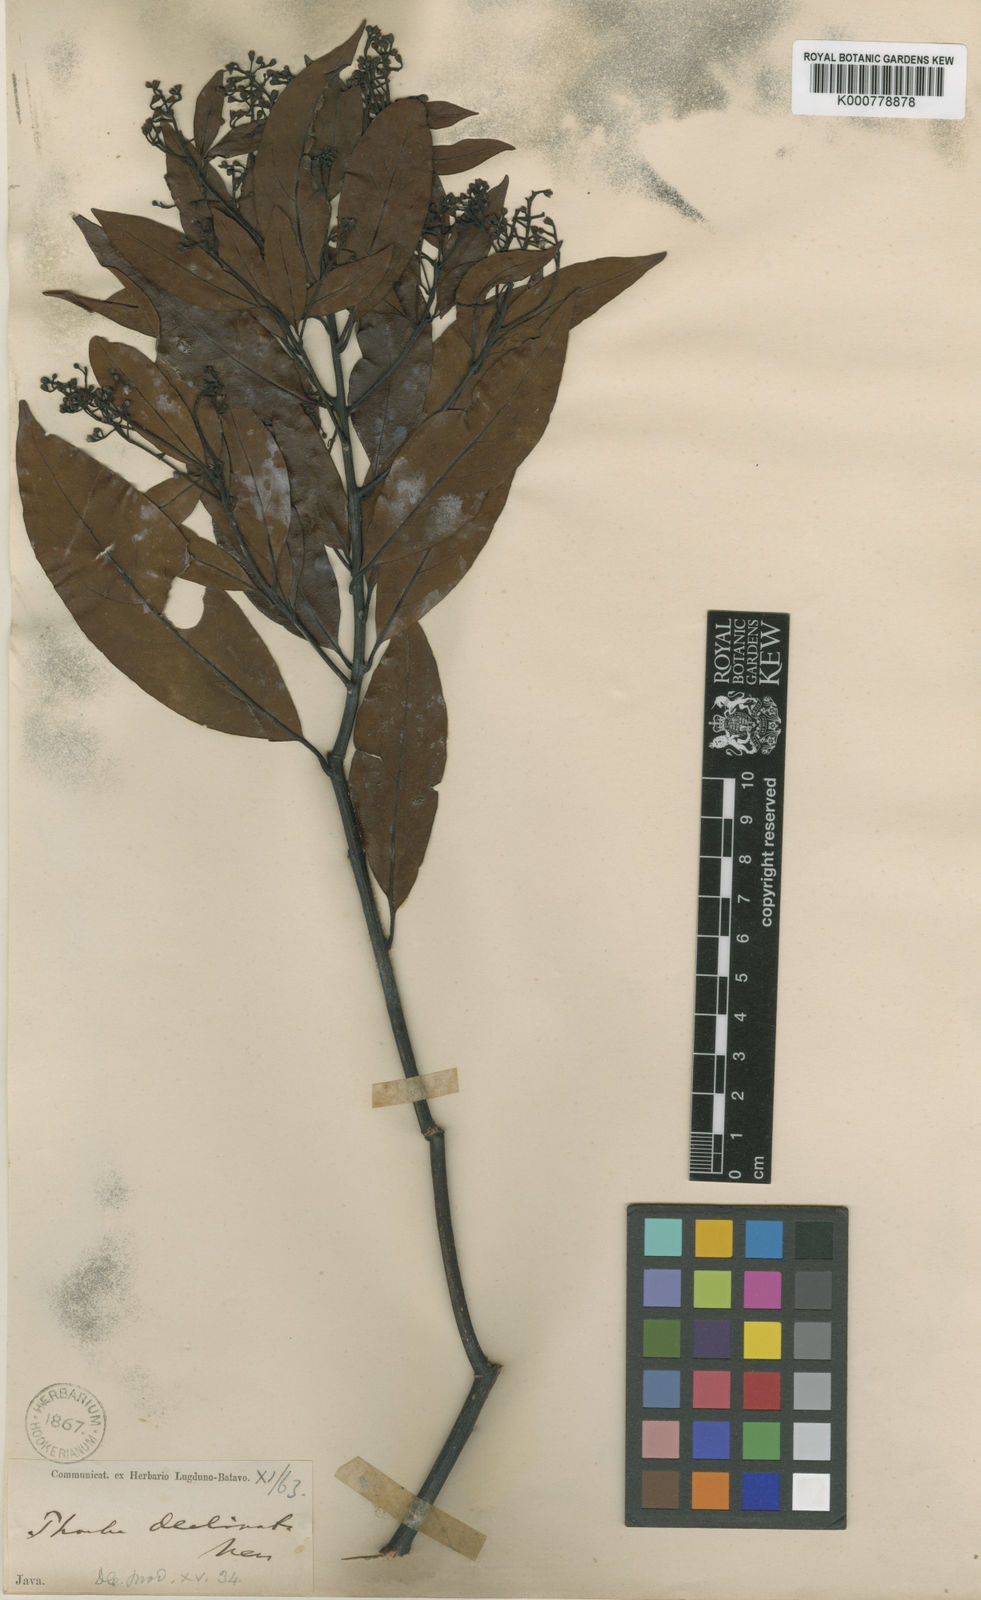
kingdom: Plantae
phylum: Tracheophyta
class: Magnoliopsida
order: Laurales
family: Lauraceae
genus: Machilus
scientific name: Machilus declinata
